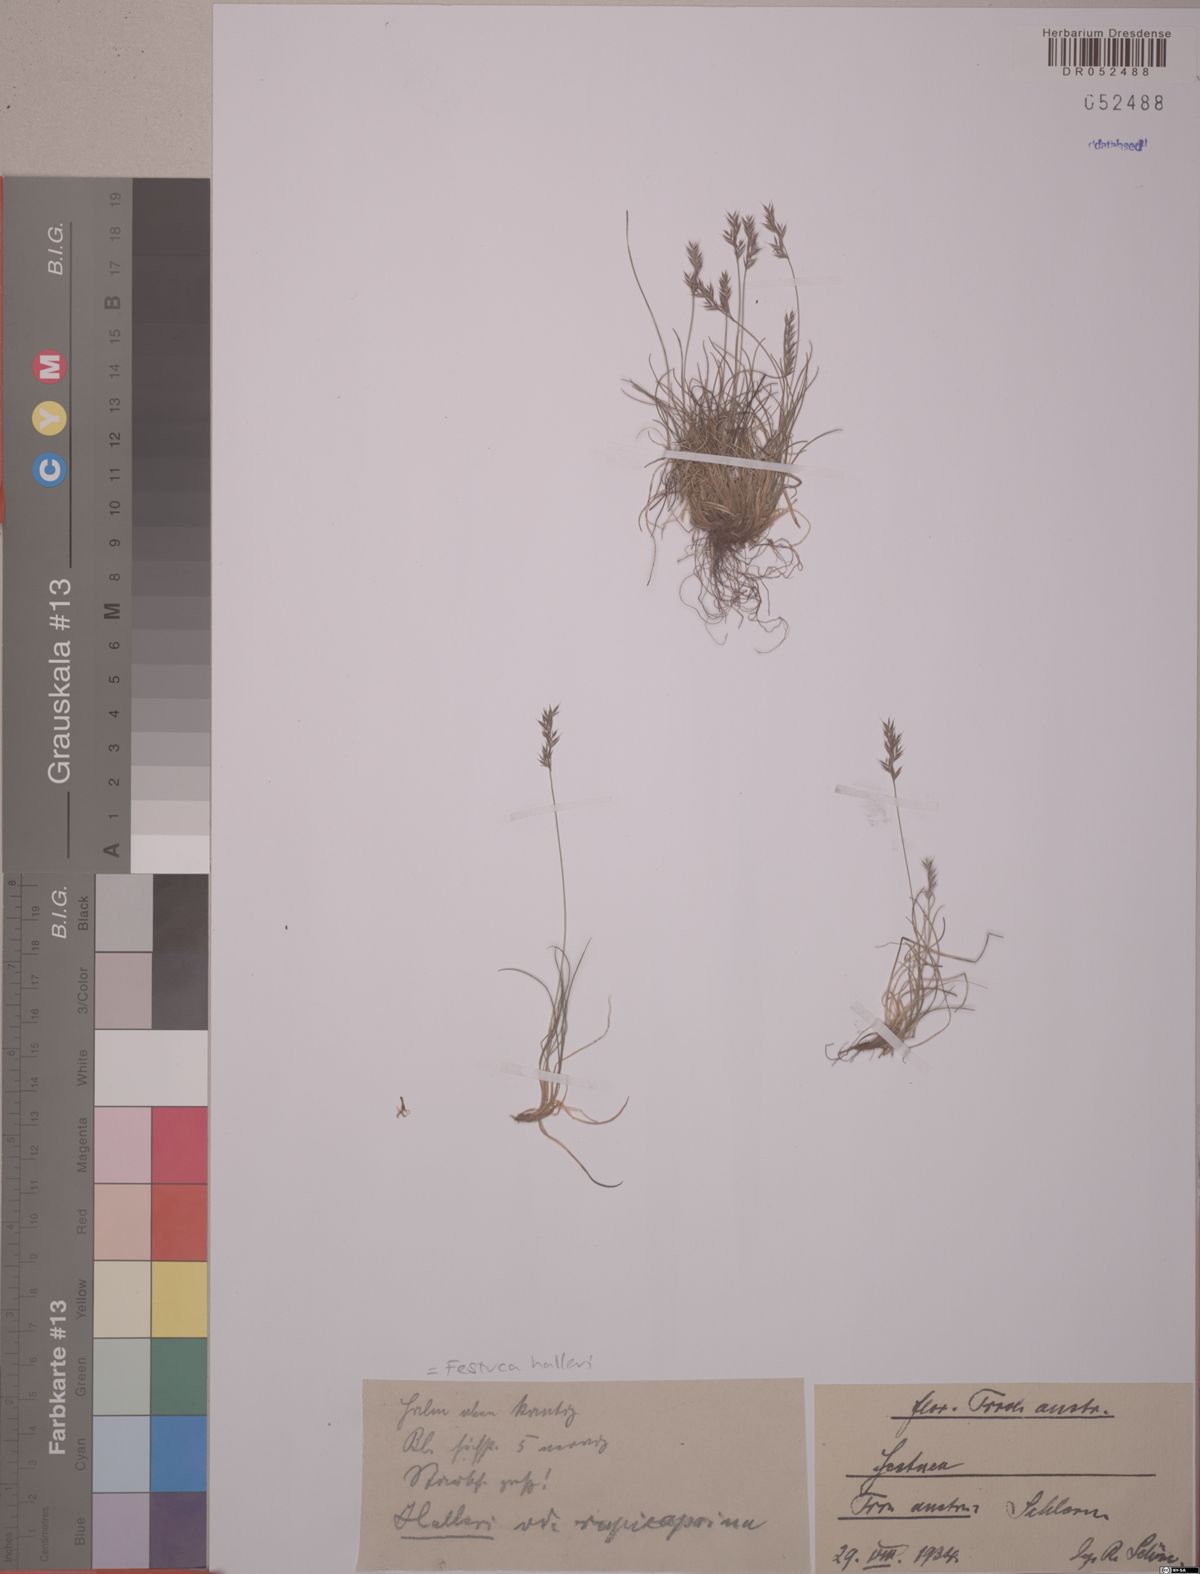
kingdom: Plantae
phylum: Tracheophyta
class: Liliopsida
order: Poales
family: Poaceae
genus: Festuca
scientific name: Festuca halleri
